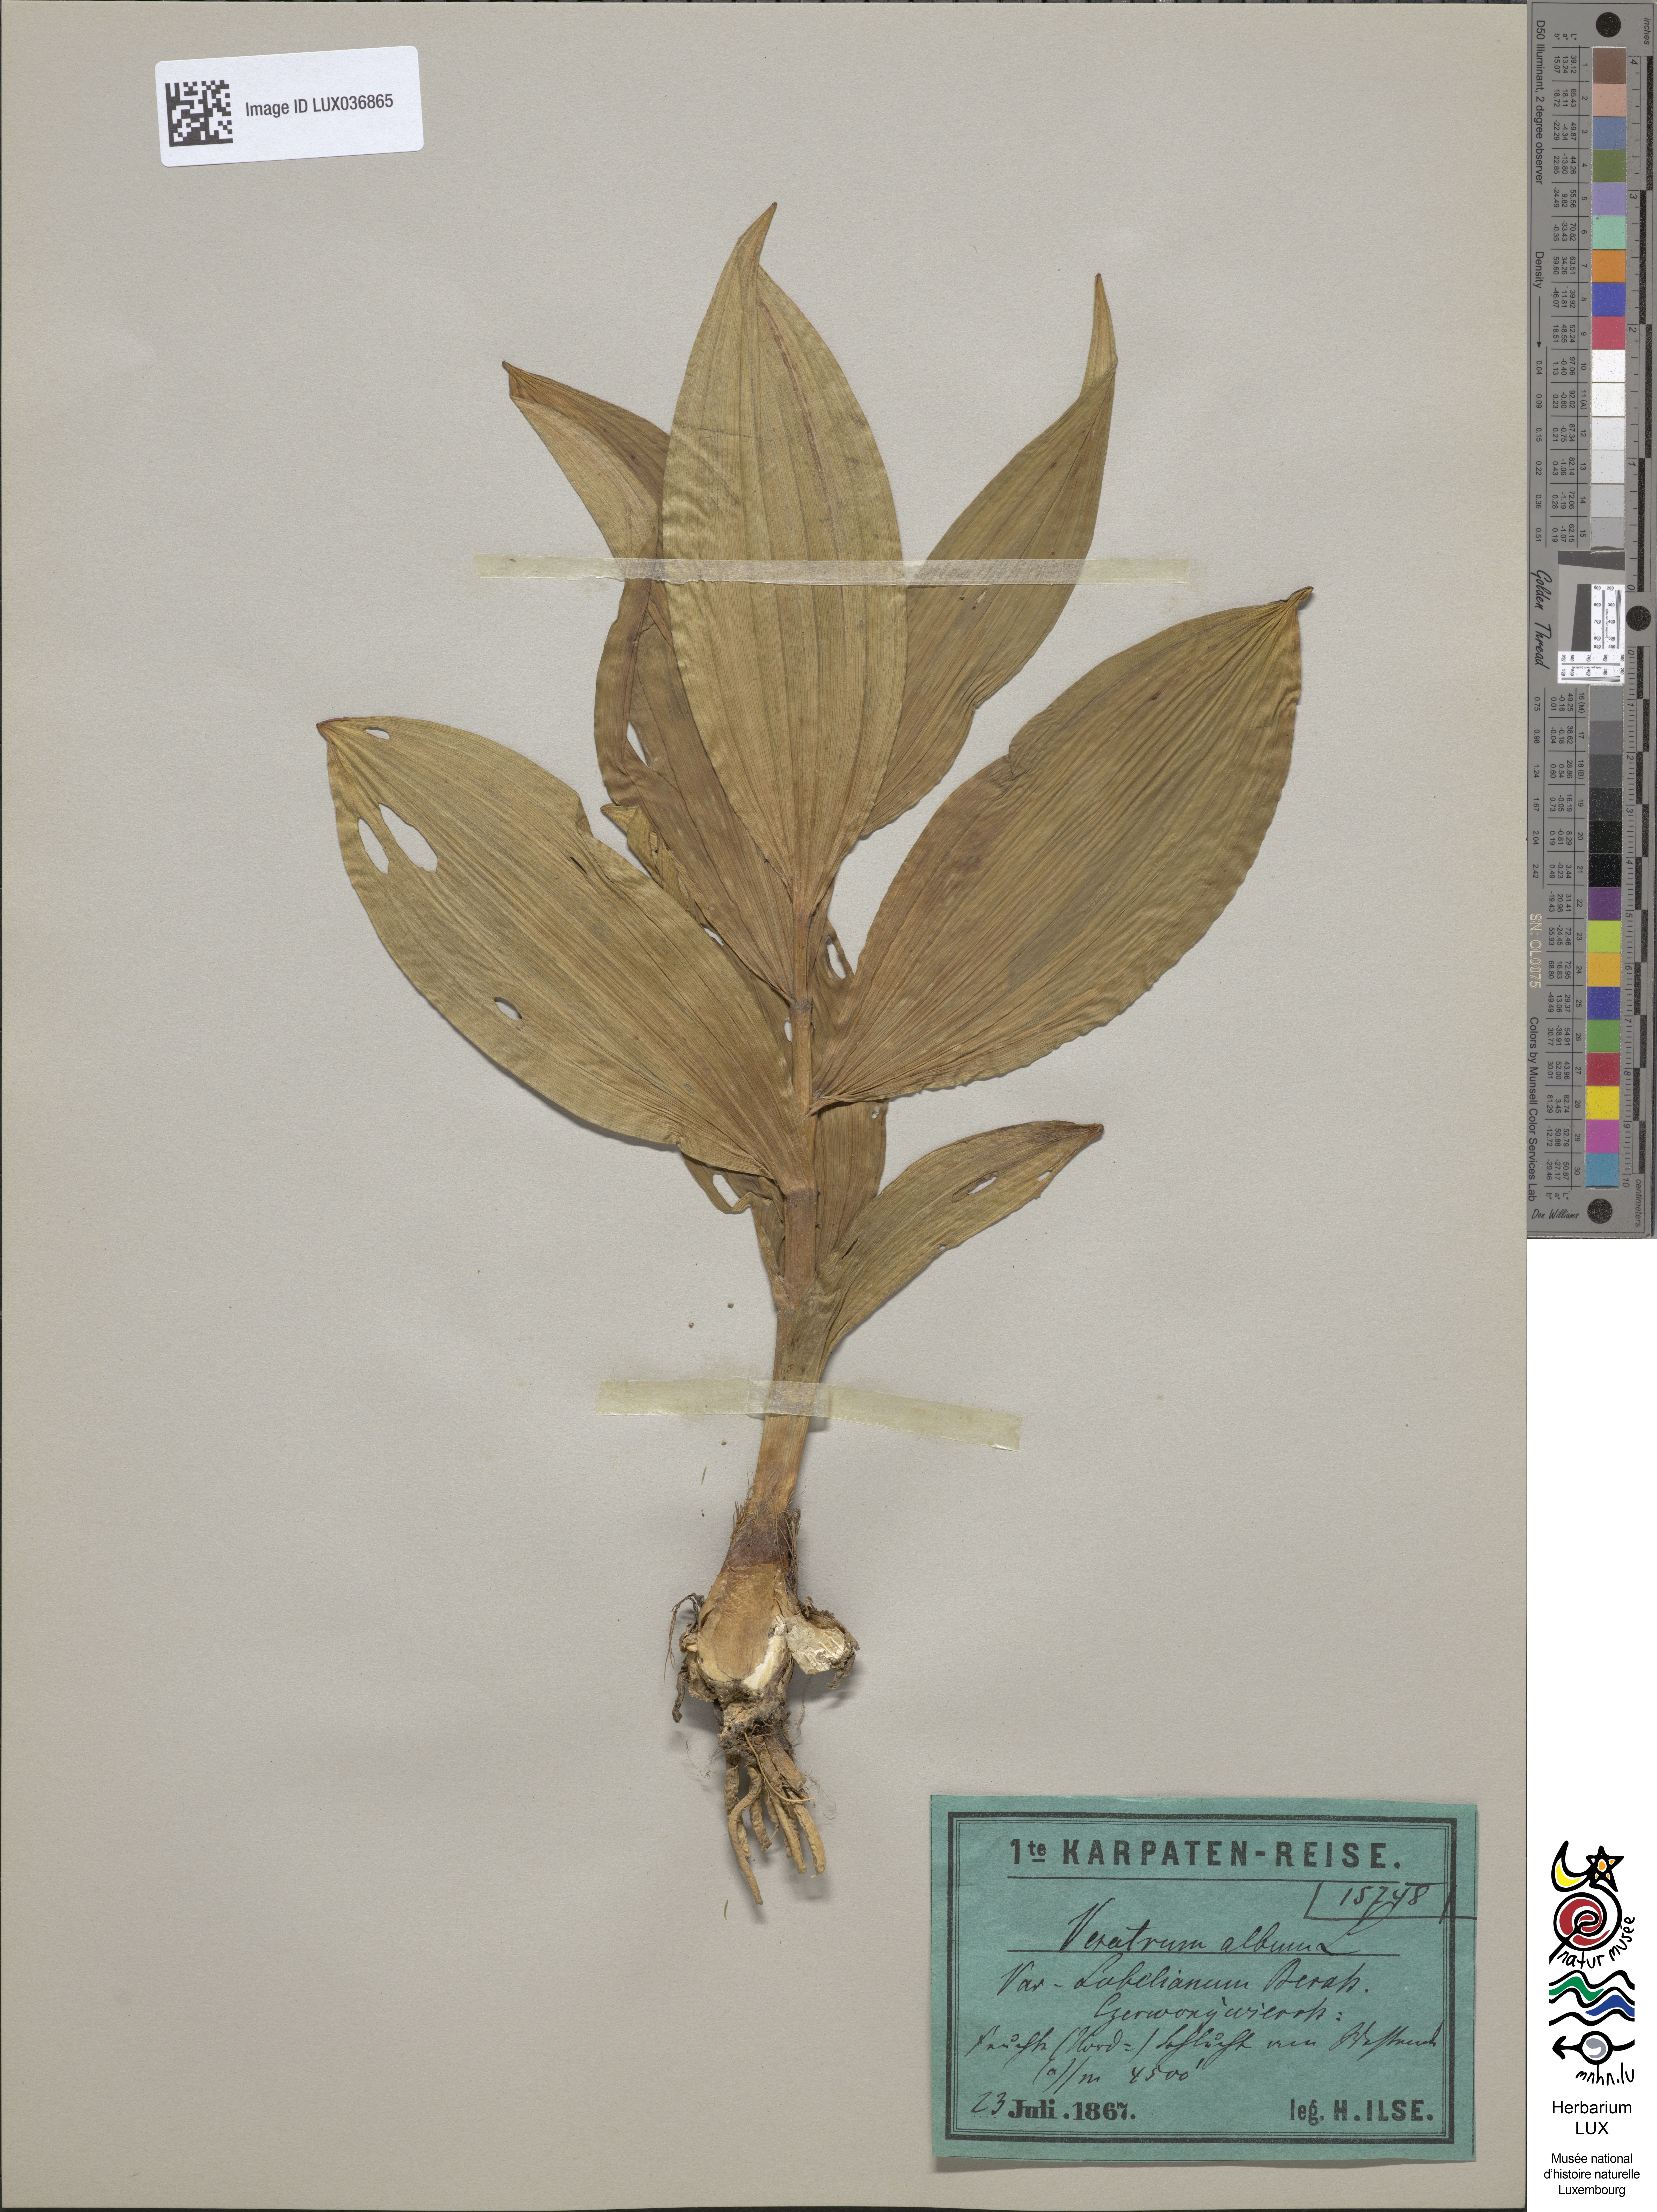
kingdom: Plantae
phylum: Tracheophyta
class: Liliopsida
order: Liliales
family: Melanthiaceae
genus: Veratrum
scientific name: Veratrum lobelianum
